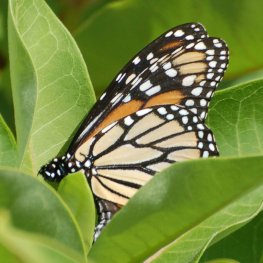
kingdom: Animalia
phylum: Arthropoda
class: Insecta
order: Lepidoptera
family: Nymphalidae
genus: Danaus
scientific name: Danaus plexippus
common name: Monarch
